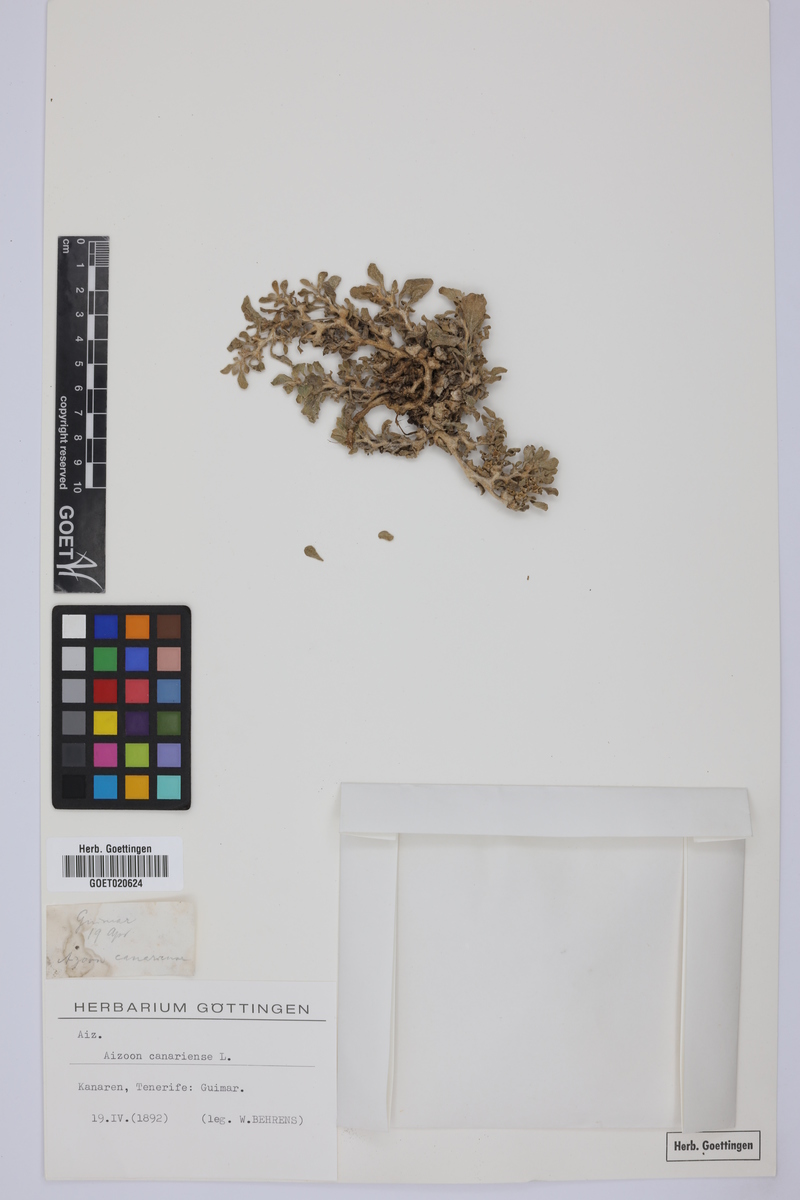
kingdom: Plantae
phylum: Tracheophyta
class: Magnoliopsida
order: Caryophyllales
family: Aizoaceae
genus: Aizoon
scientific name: Aizoon canariense
